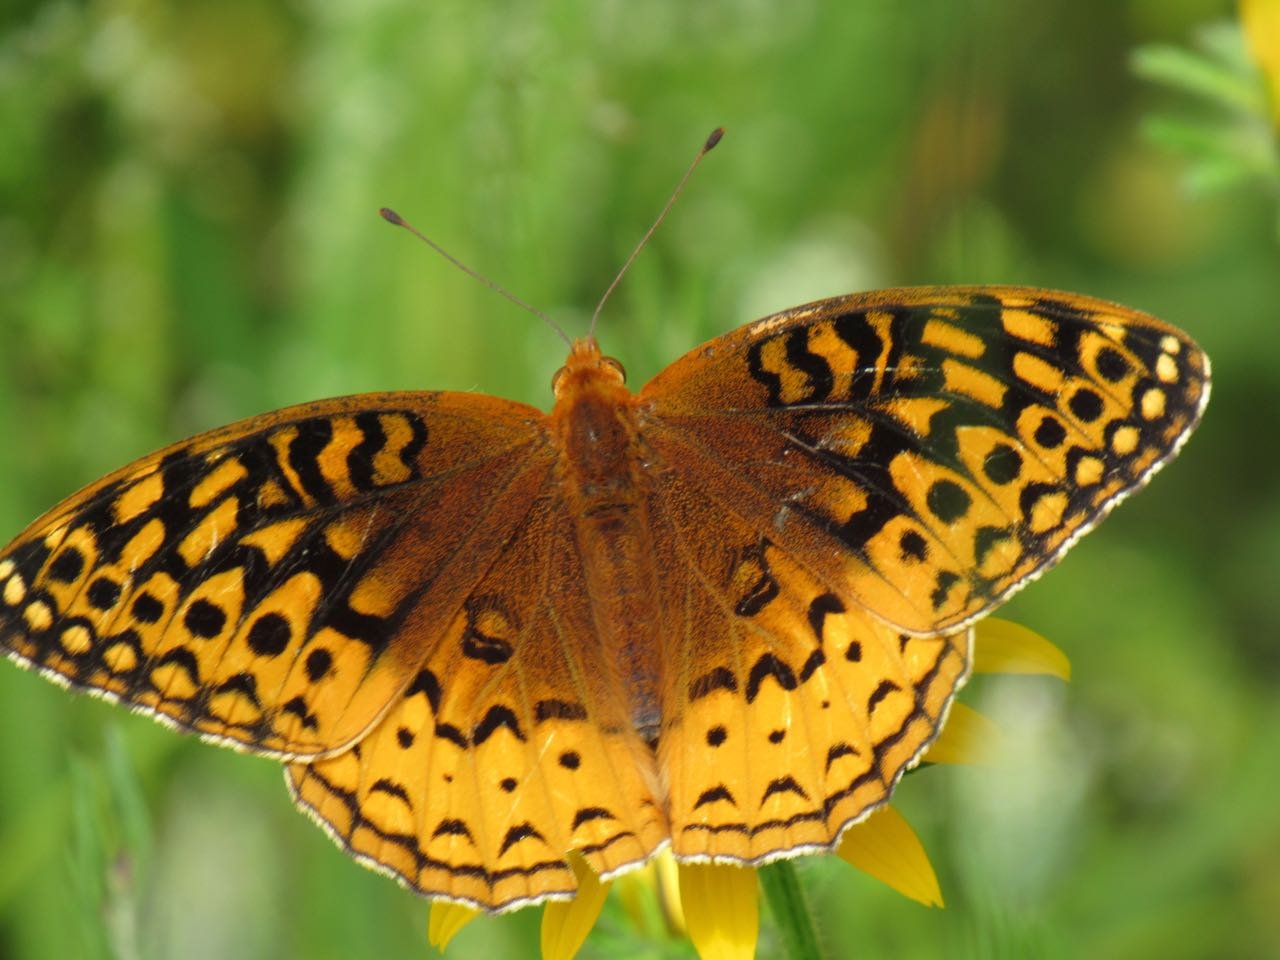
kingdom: Animalia
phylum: Arthropoda
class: Insecta
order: Lepidoptera
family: Nymphalidae
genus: Speyeria
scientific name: Speyeria cybele
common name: Great Spangled Fritillary
